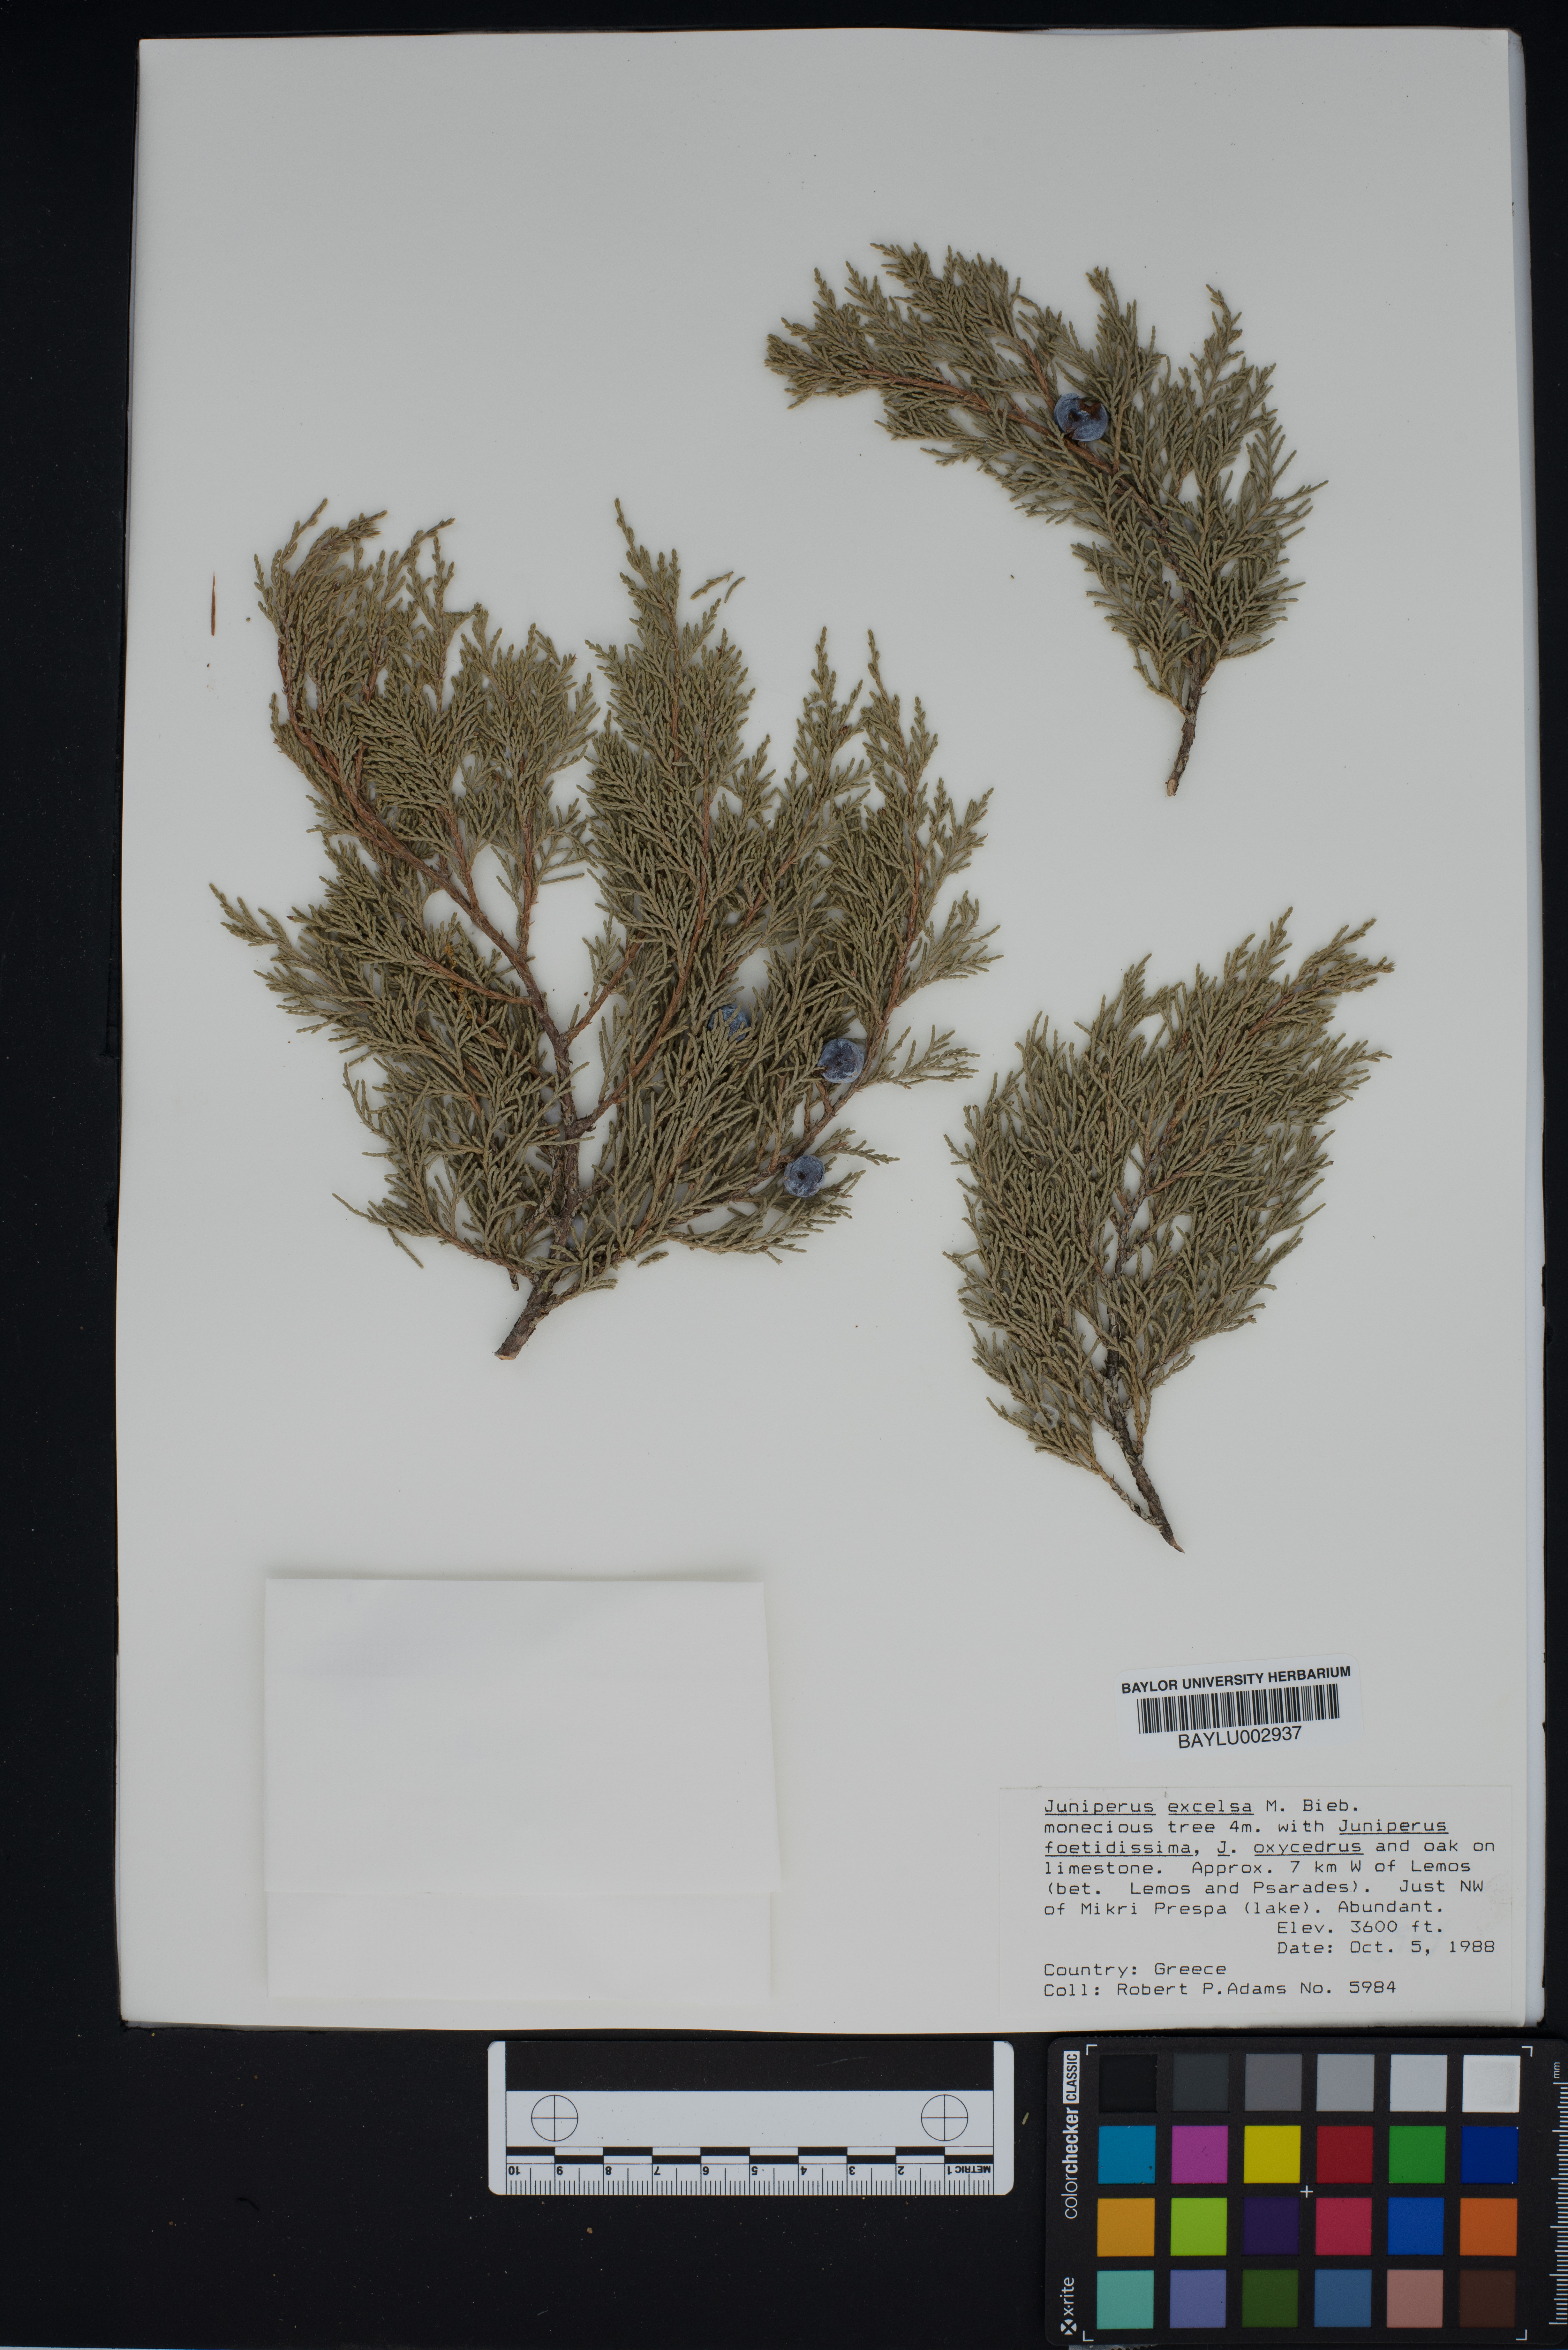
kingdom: Plantae
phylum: Tracheophyta
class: Pinopsida
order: Pinales
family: Cupressaceae
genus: Juniperus
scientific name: Juniperus excelsa
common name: Crimean juniper
